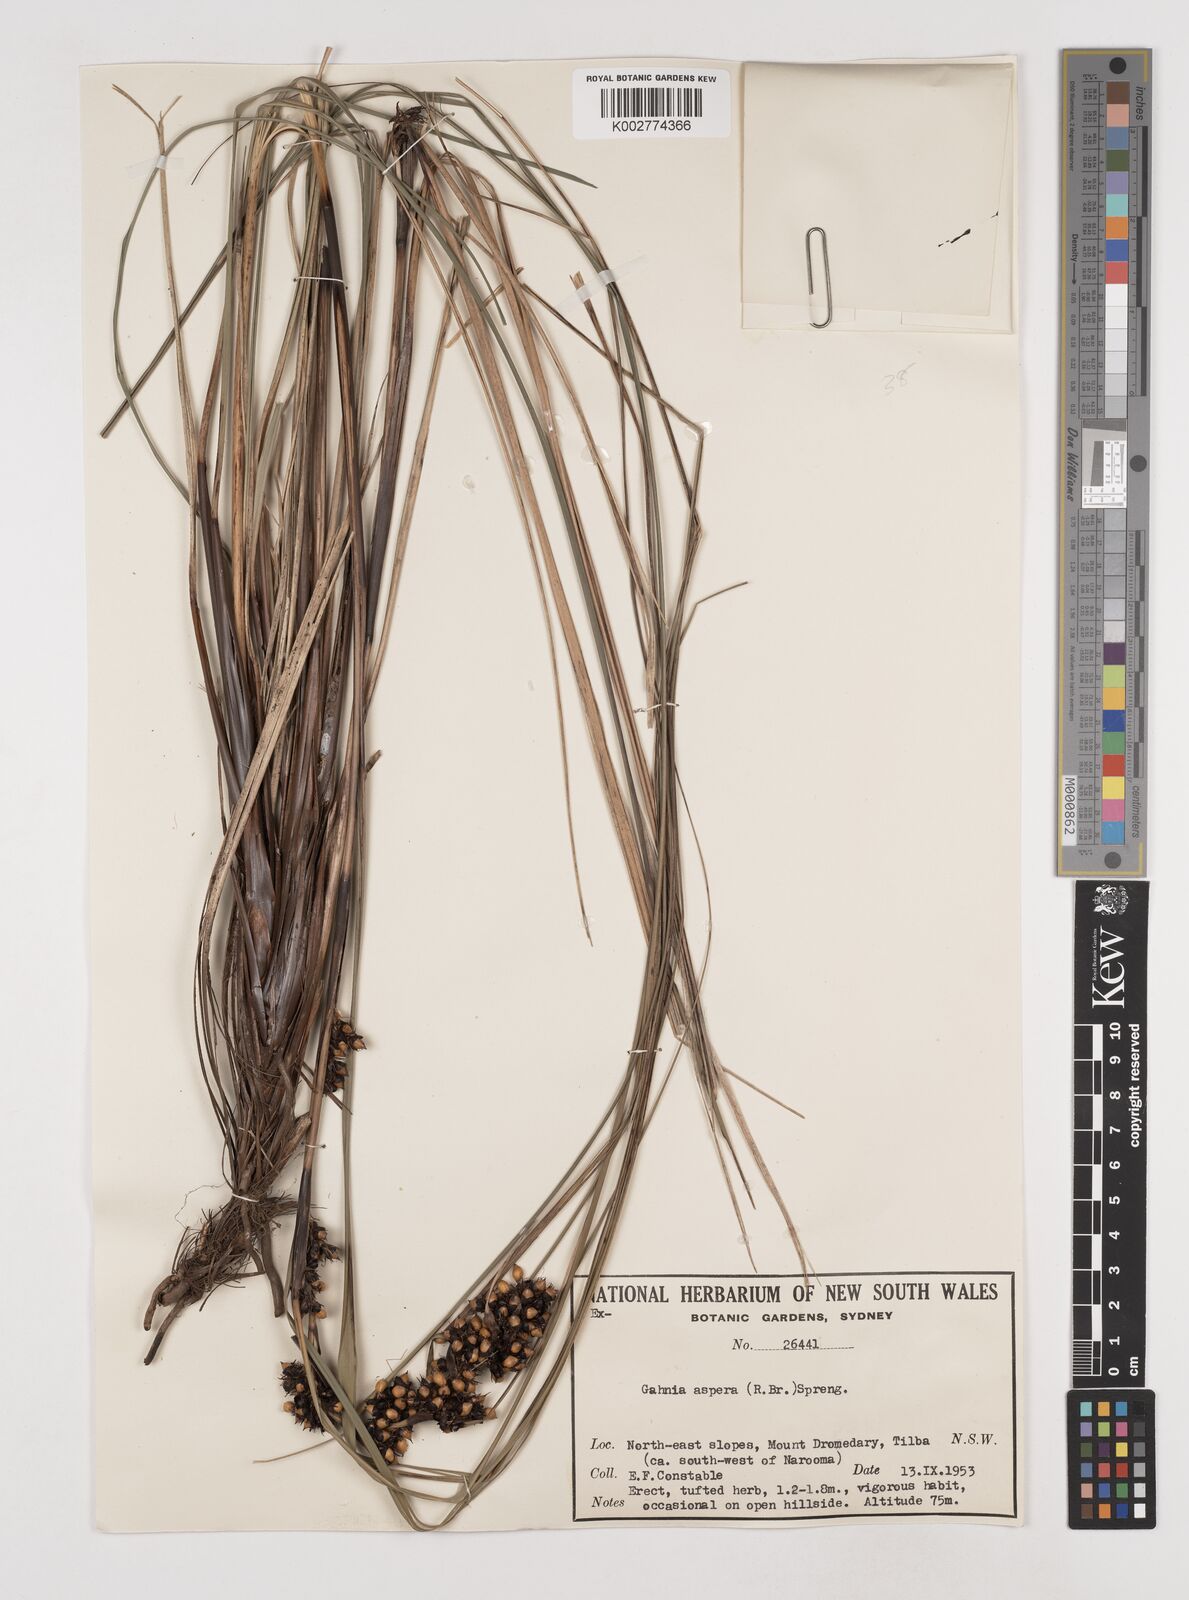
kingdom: Plantae
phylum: Tracheophyta
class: Liliopsida
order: Poales
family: Cyperaceae
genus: Gahnia
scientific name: Gahnia aspera
